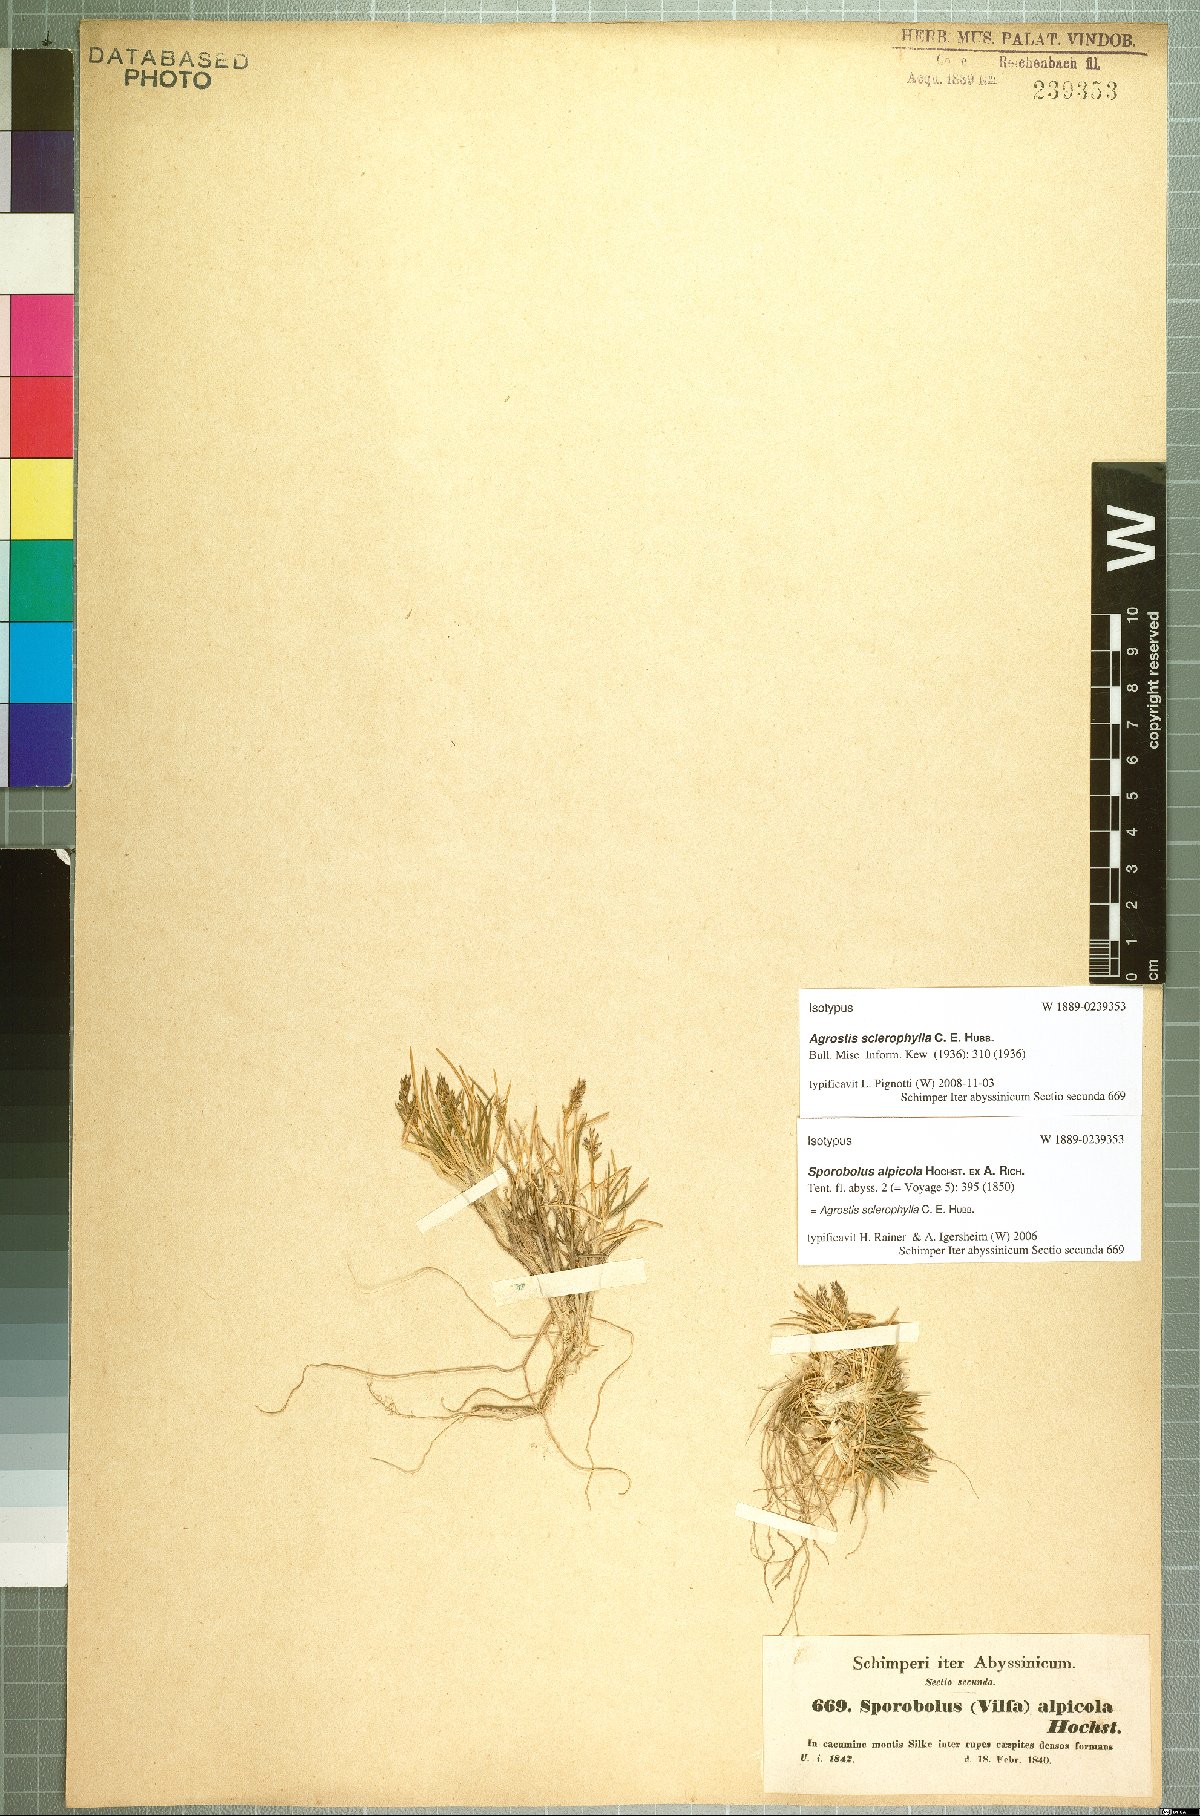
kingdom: Plantae
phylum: Tracheophyta
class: Liliopsida
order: Poales
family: Poaceae
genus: Agrostis
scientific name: Agrostis sclerophylla
